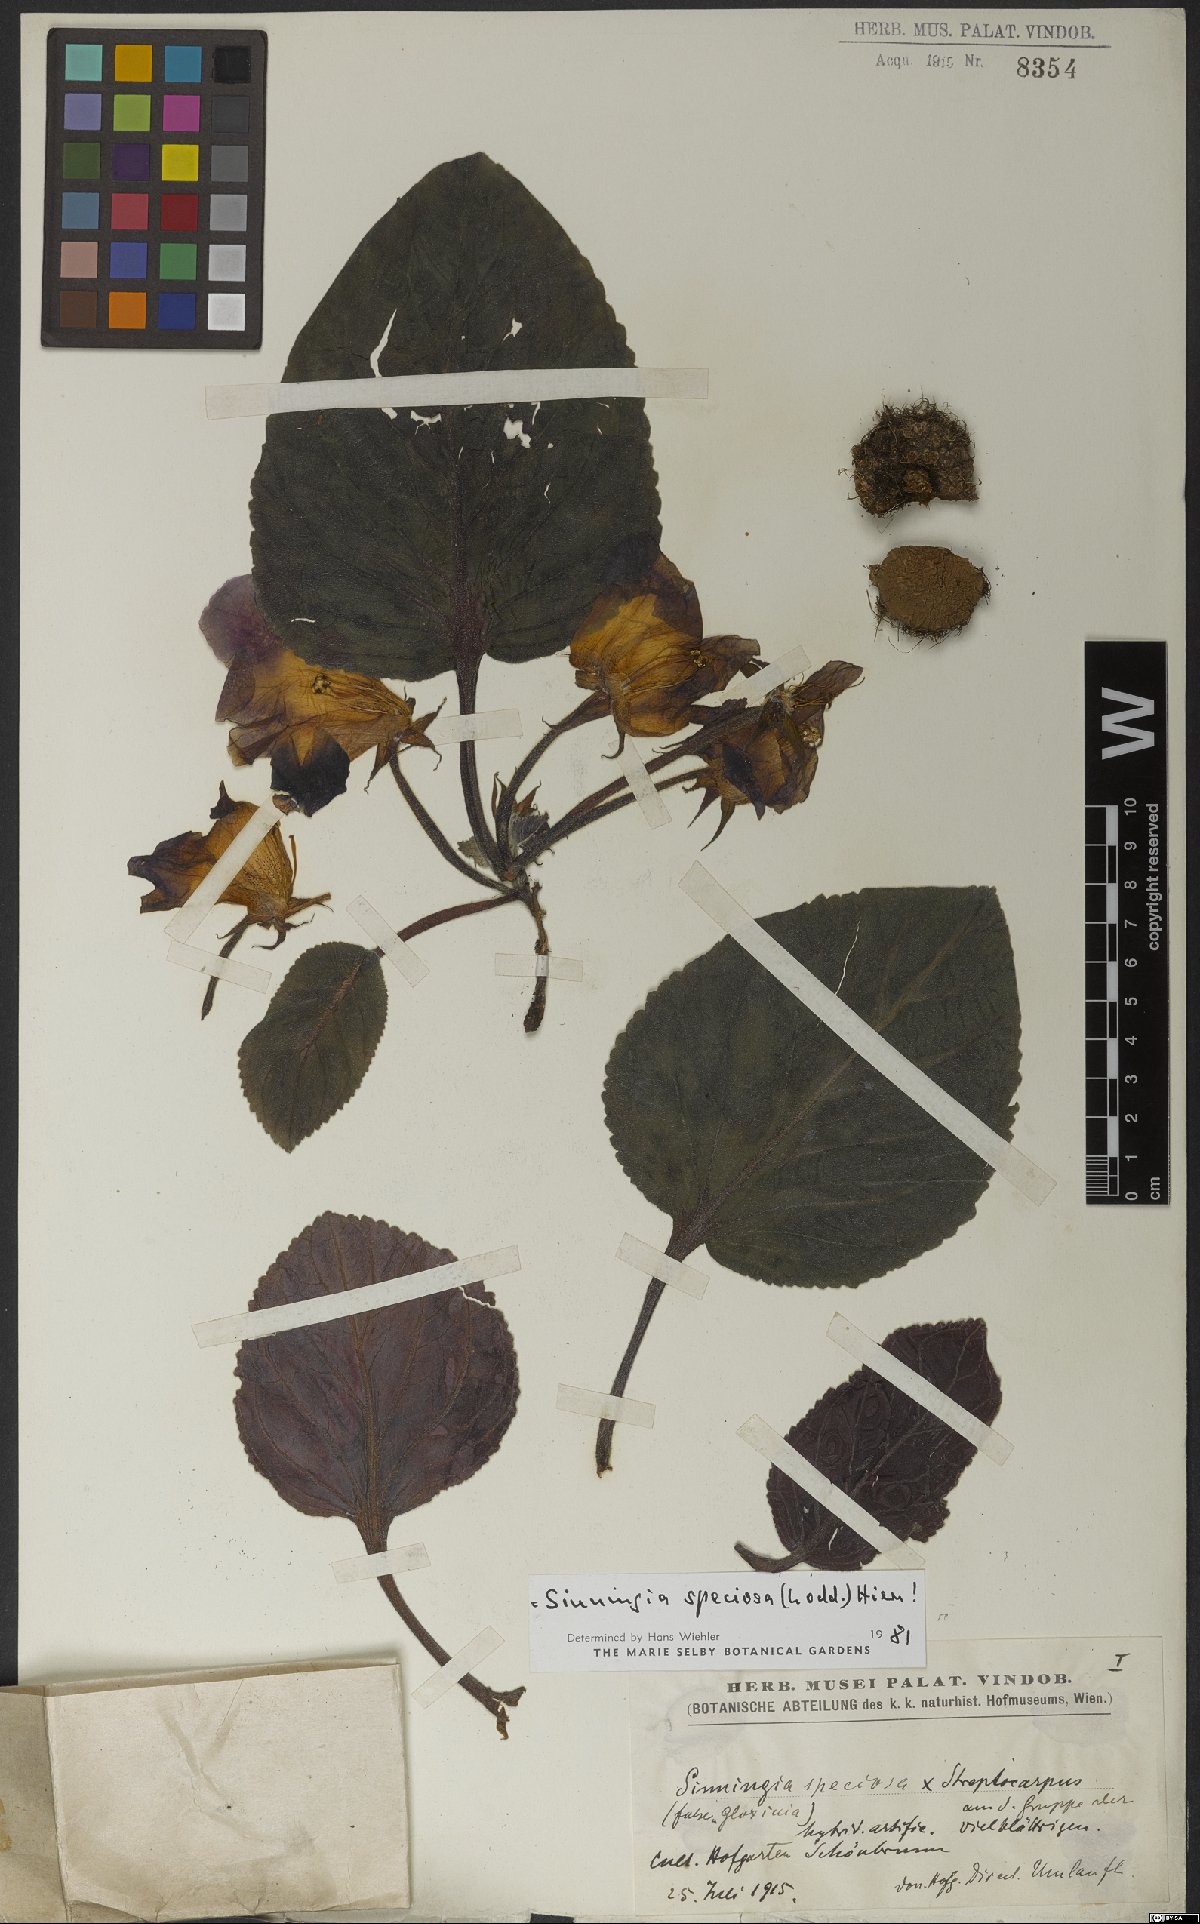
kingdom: Plantae
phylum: Tracheophyta
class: Magnoliopsida
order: Lamiales
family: Gesneriaceae
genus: Sinningia
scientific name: Sinningia speciosa
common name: Brazilian gloxinia
